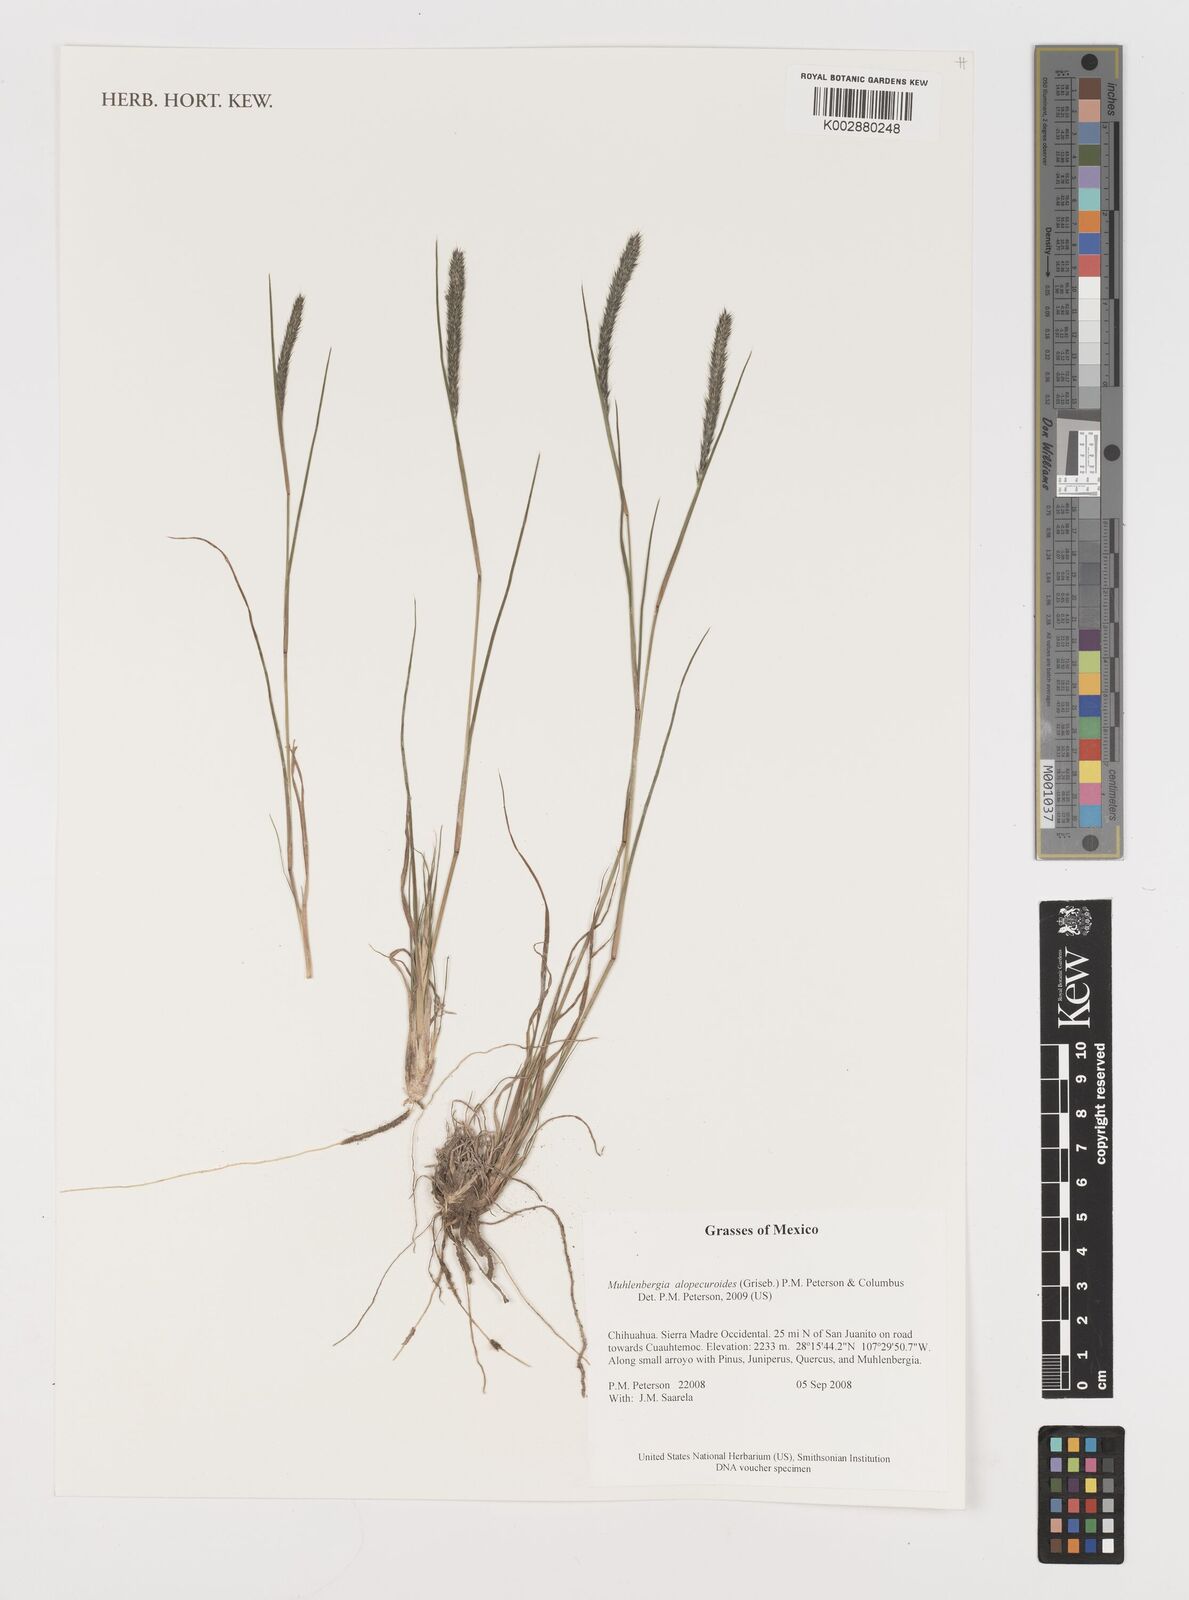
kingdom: Plantae
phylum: Tracheophyta
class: Liliopsida
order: Poales
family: Poaceae
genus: Muhlenbergia
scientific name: Muhlenbergia alopecuroides
